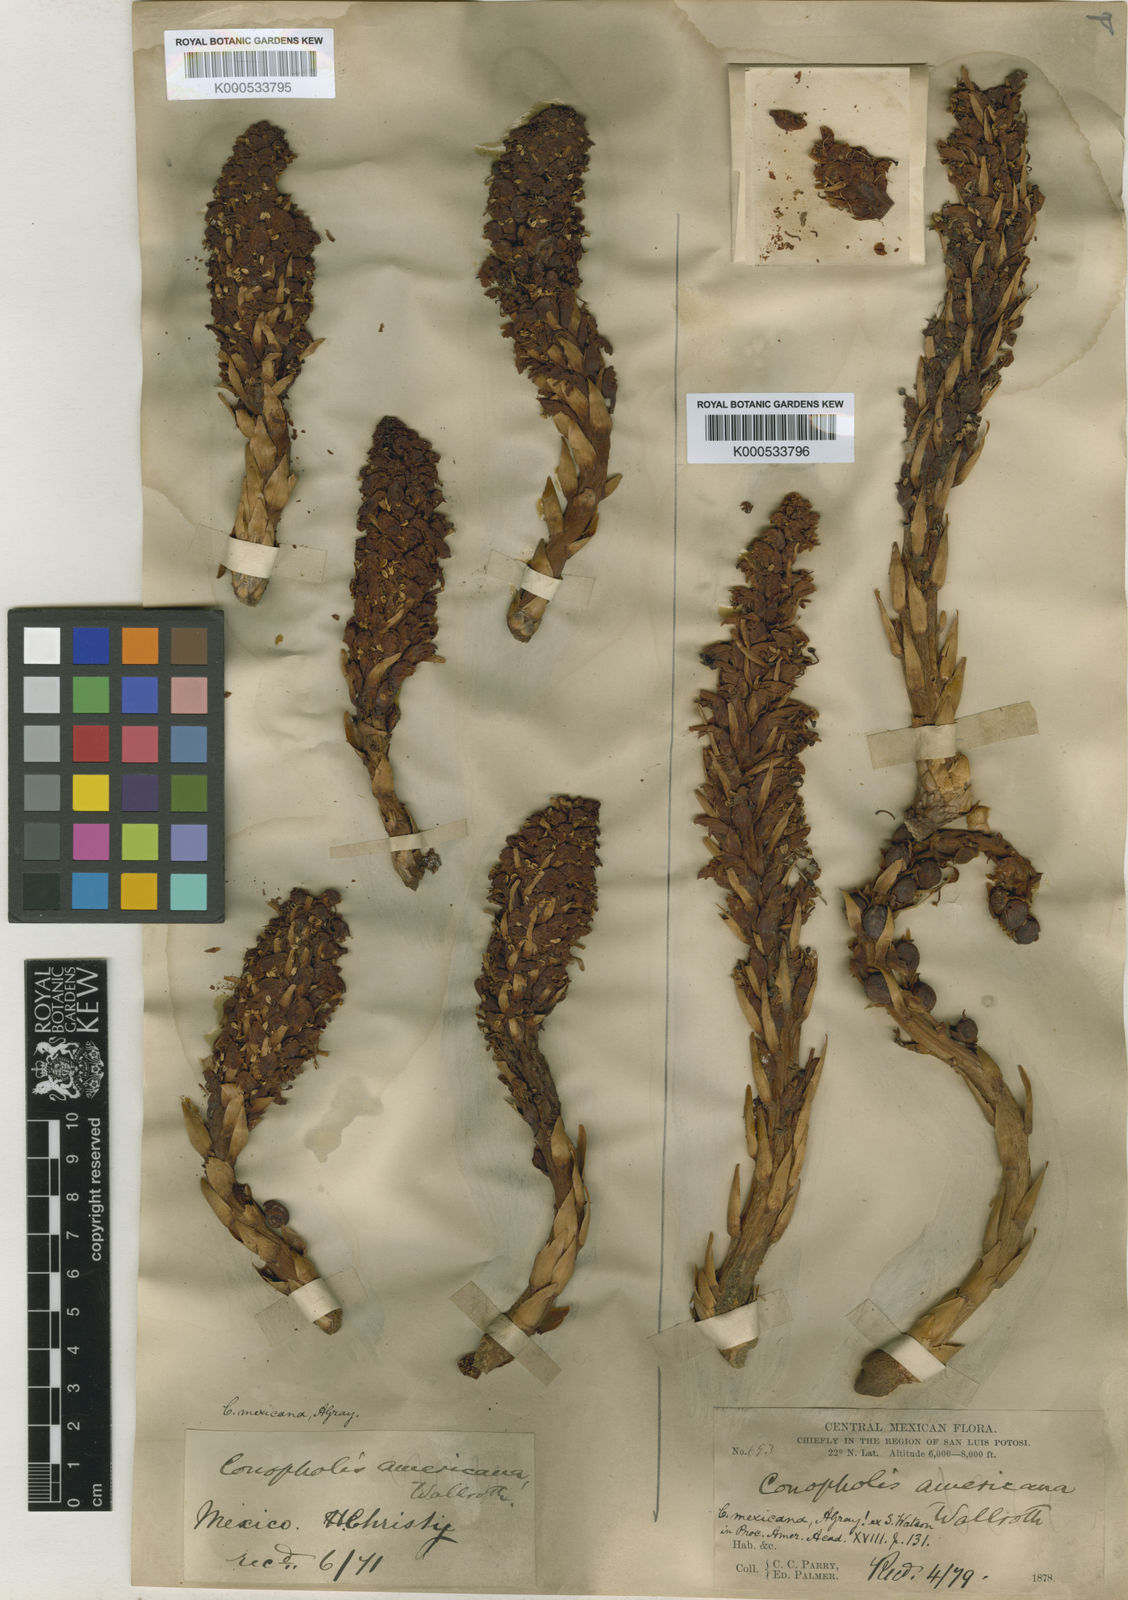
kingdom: Plantae
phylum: Tracheophyta
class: Magnoliopsida
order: Lamiales
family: Orobanchaceae
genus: Conopholis
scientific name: Conopholis alpina
